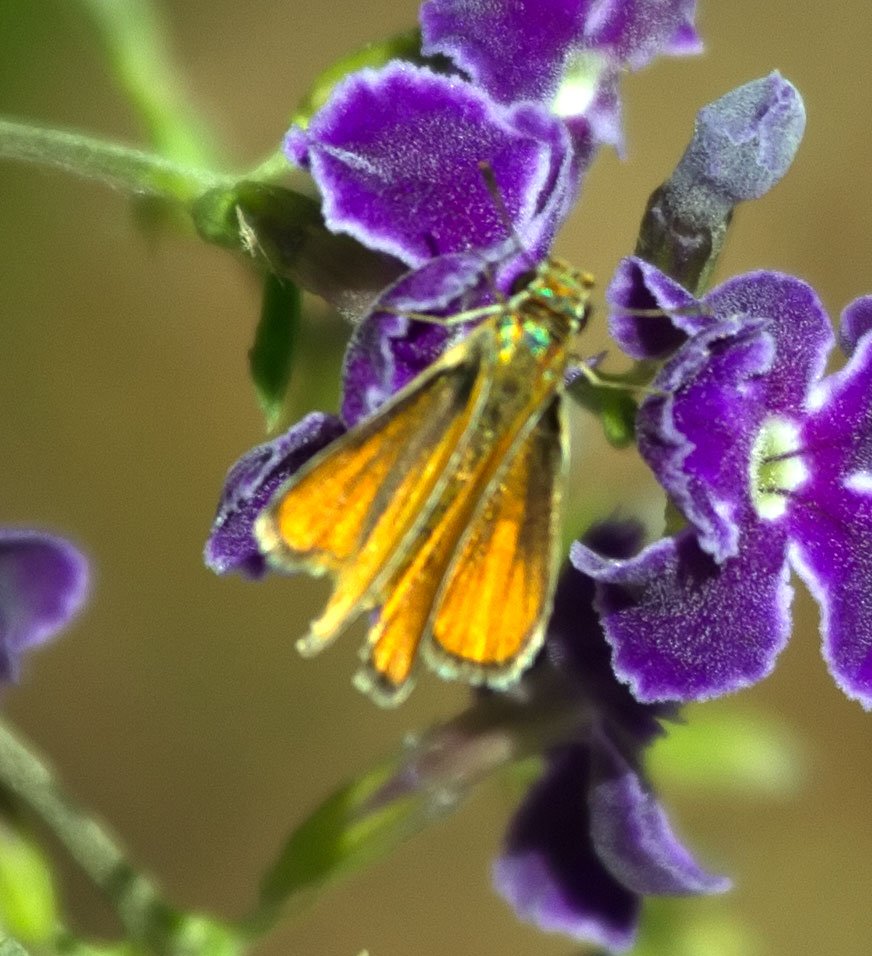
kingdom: Animalia
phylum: Arthropoda
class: Insecta
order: Lepidoptera
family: Hesperiidae
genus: Copaeodes
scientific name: Copaeodes minima
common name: Southern Skipperling
